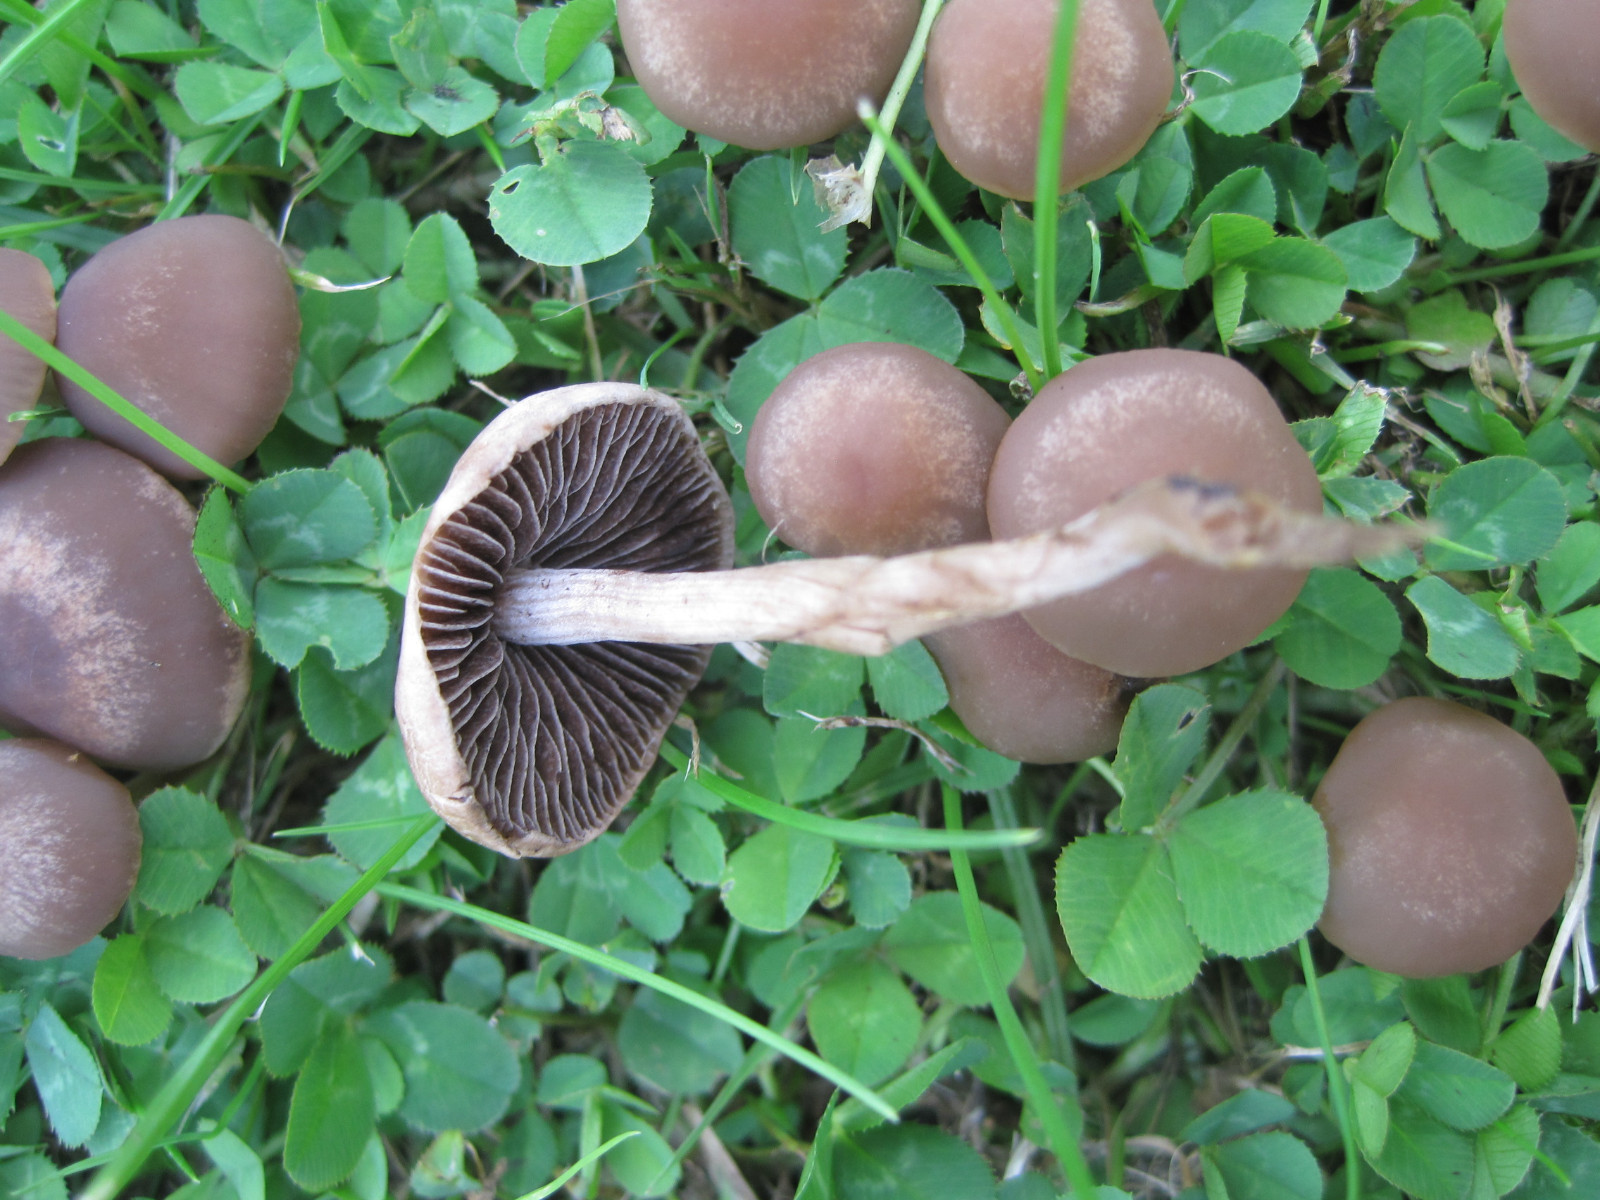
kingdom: Fungi
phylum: Basidiomycota
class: Agaricomycetes
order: Agaricales
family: Bolbitiaceae
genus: Panaeolina
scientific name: Panaeolina foenisecii
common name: høslætsvamp
